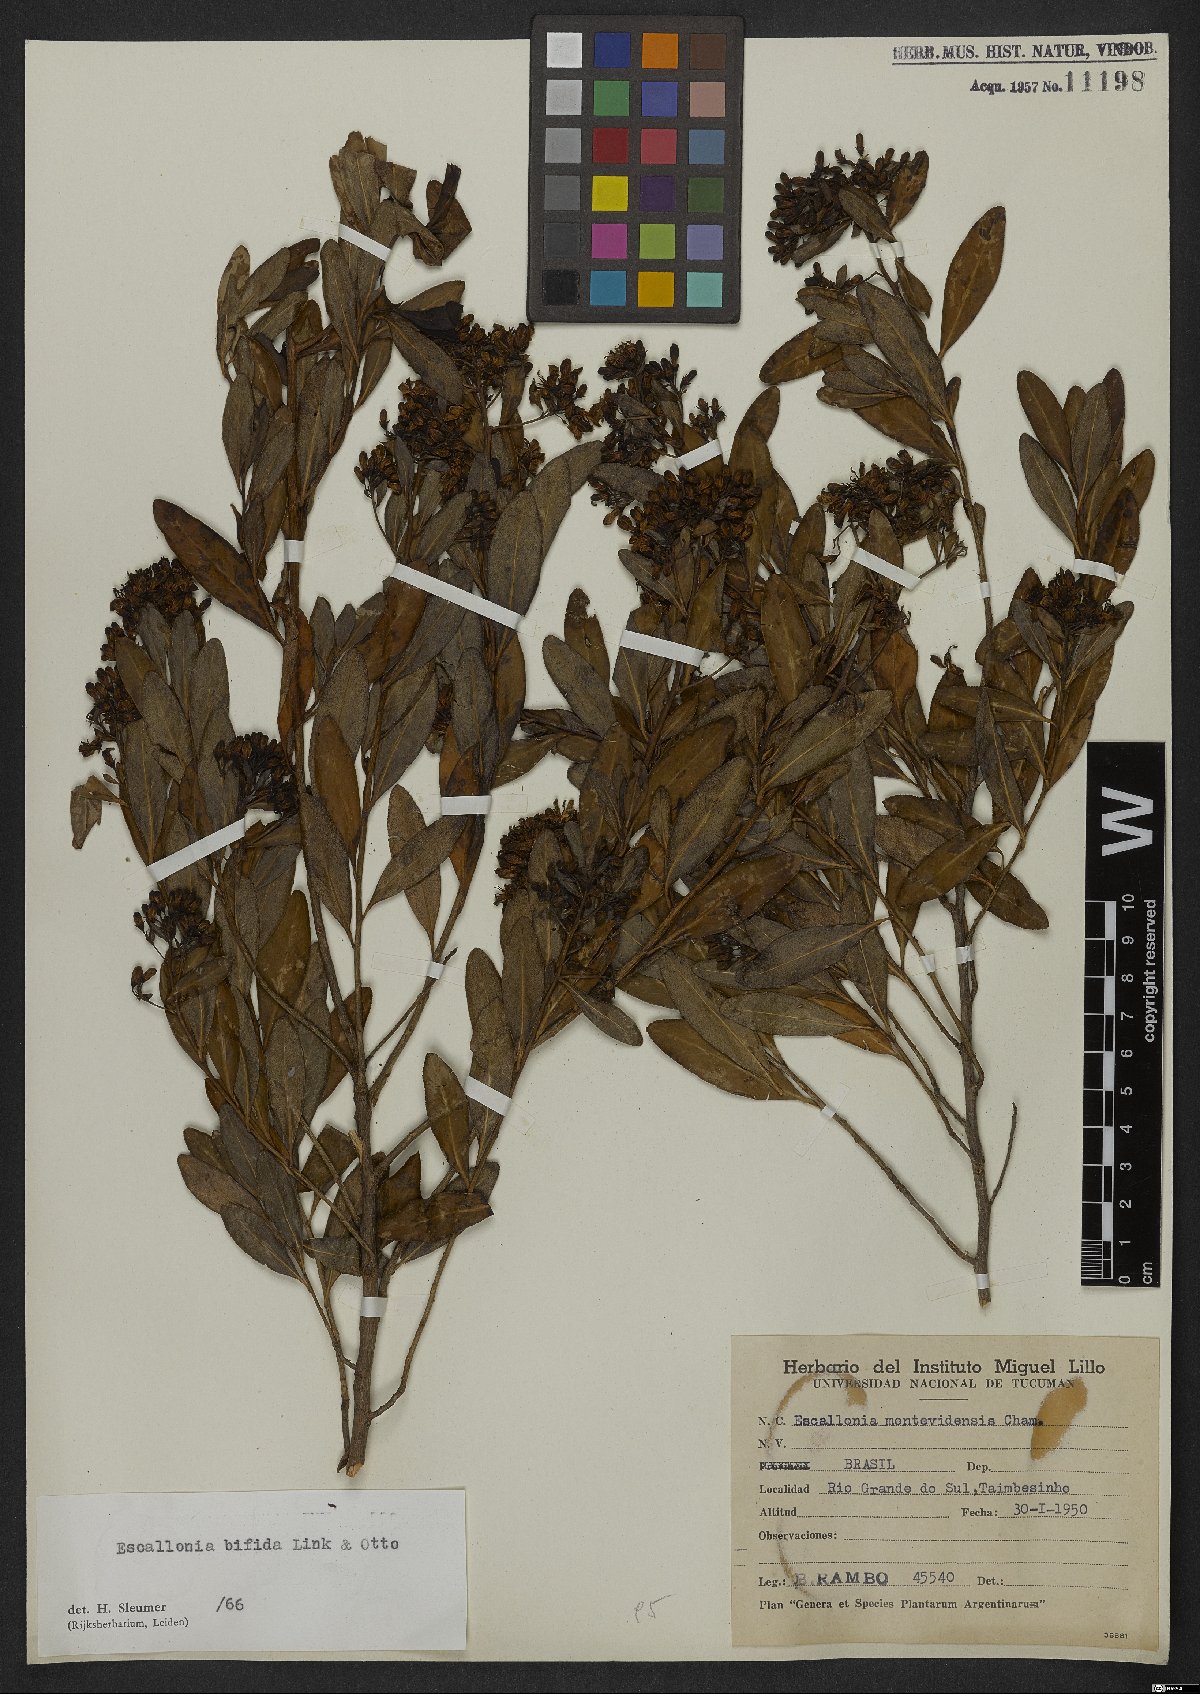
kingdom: Plantae
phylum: Tracheophyta
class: Magnoliopsida
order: Escalloniales
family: Escalloniaceae
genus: Escallonia
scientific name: Escallonia bifida
